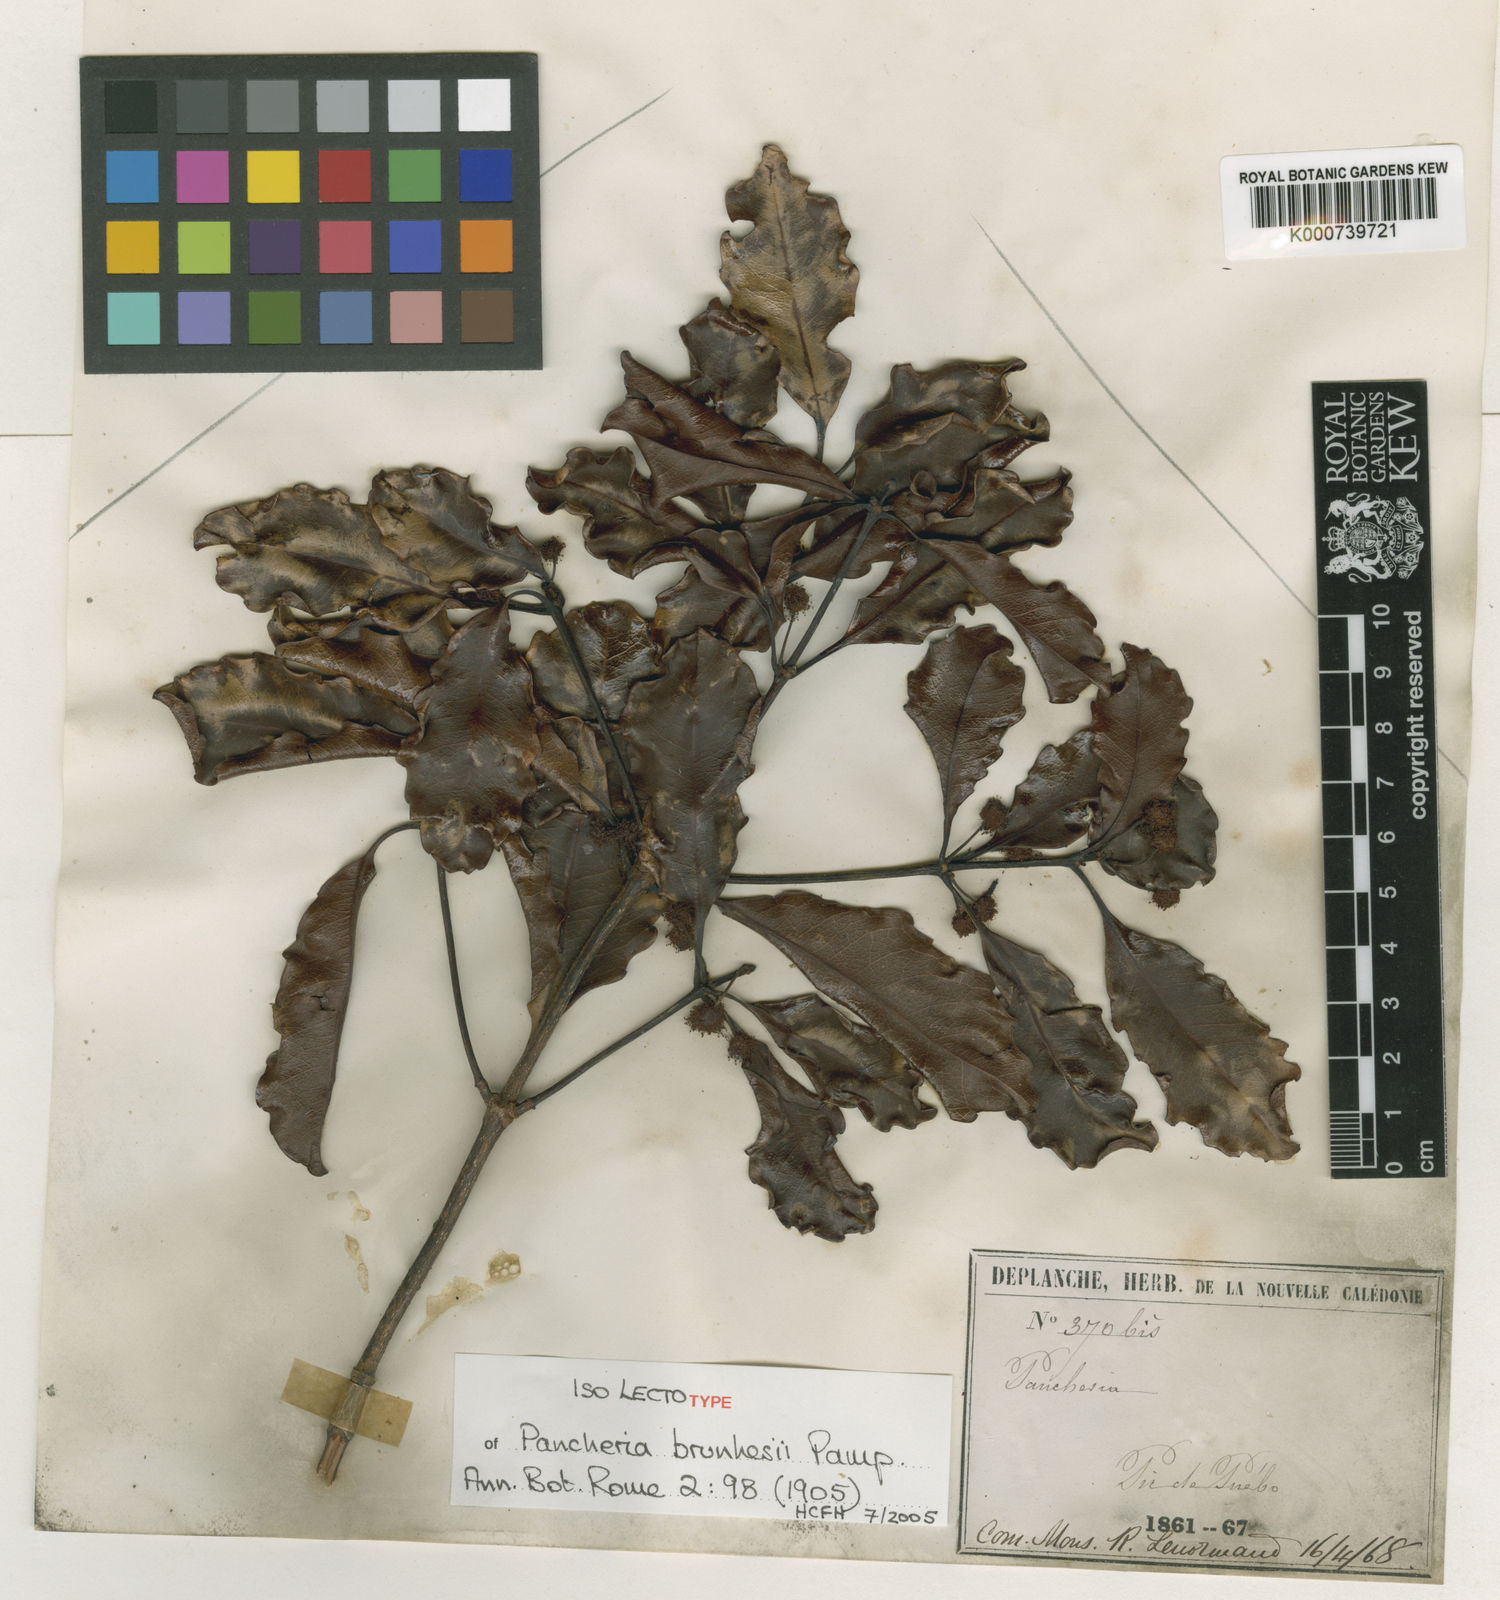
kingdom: Plantae
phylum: Tracheophyta
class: Magnoliopsida
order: Oxalidales
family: Cunoniaceae
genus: Pancheria
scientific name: Pancheria brunhesii
